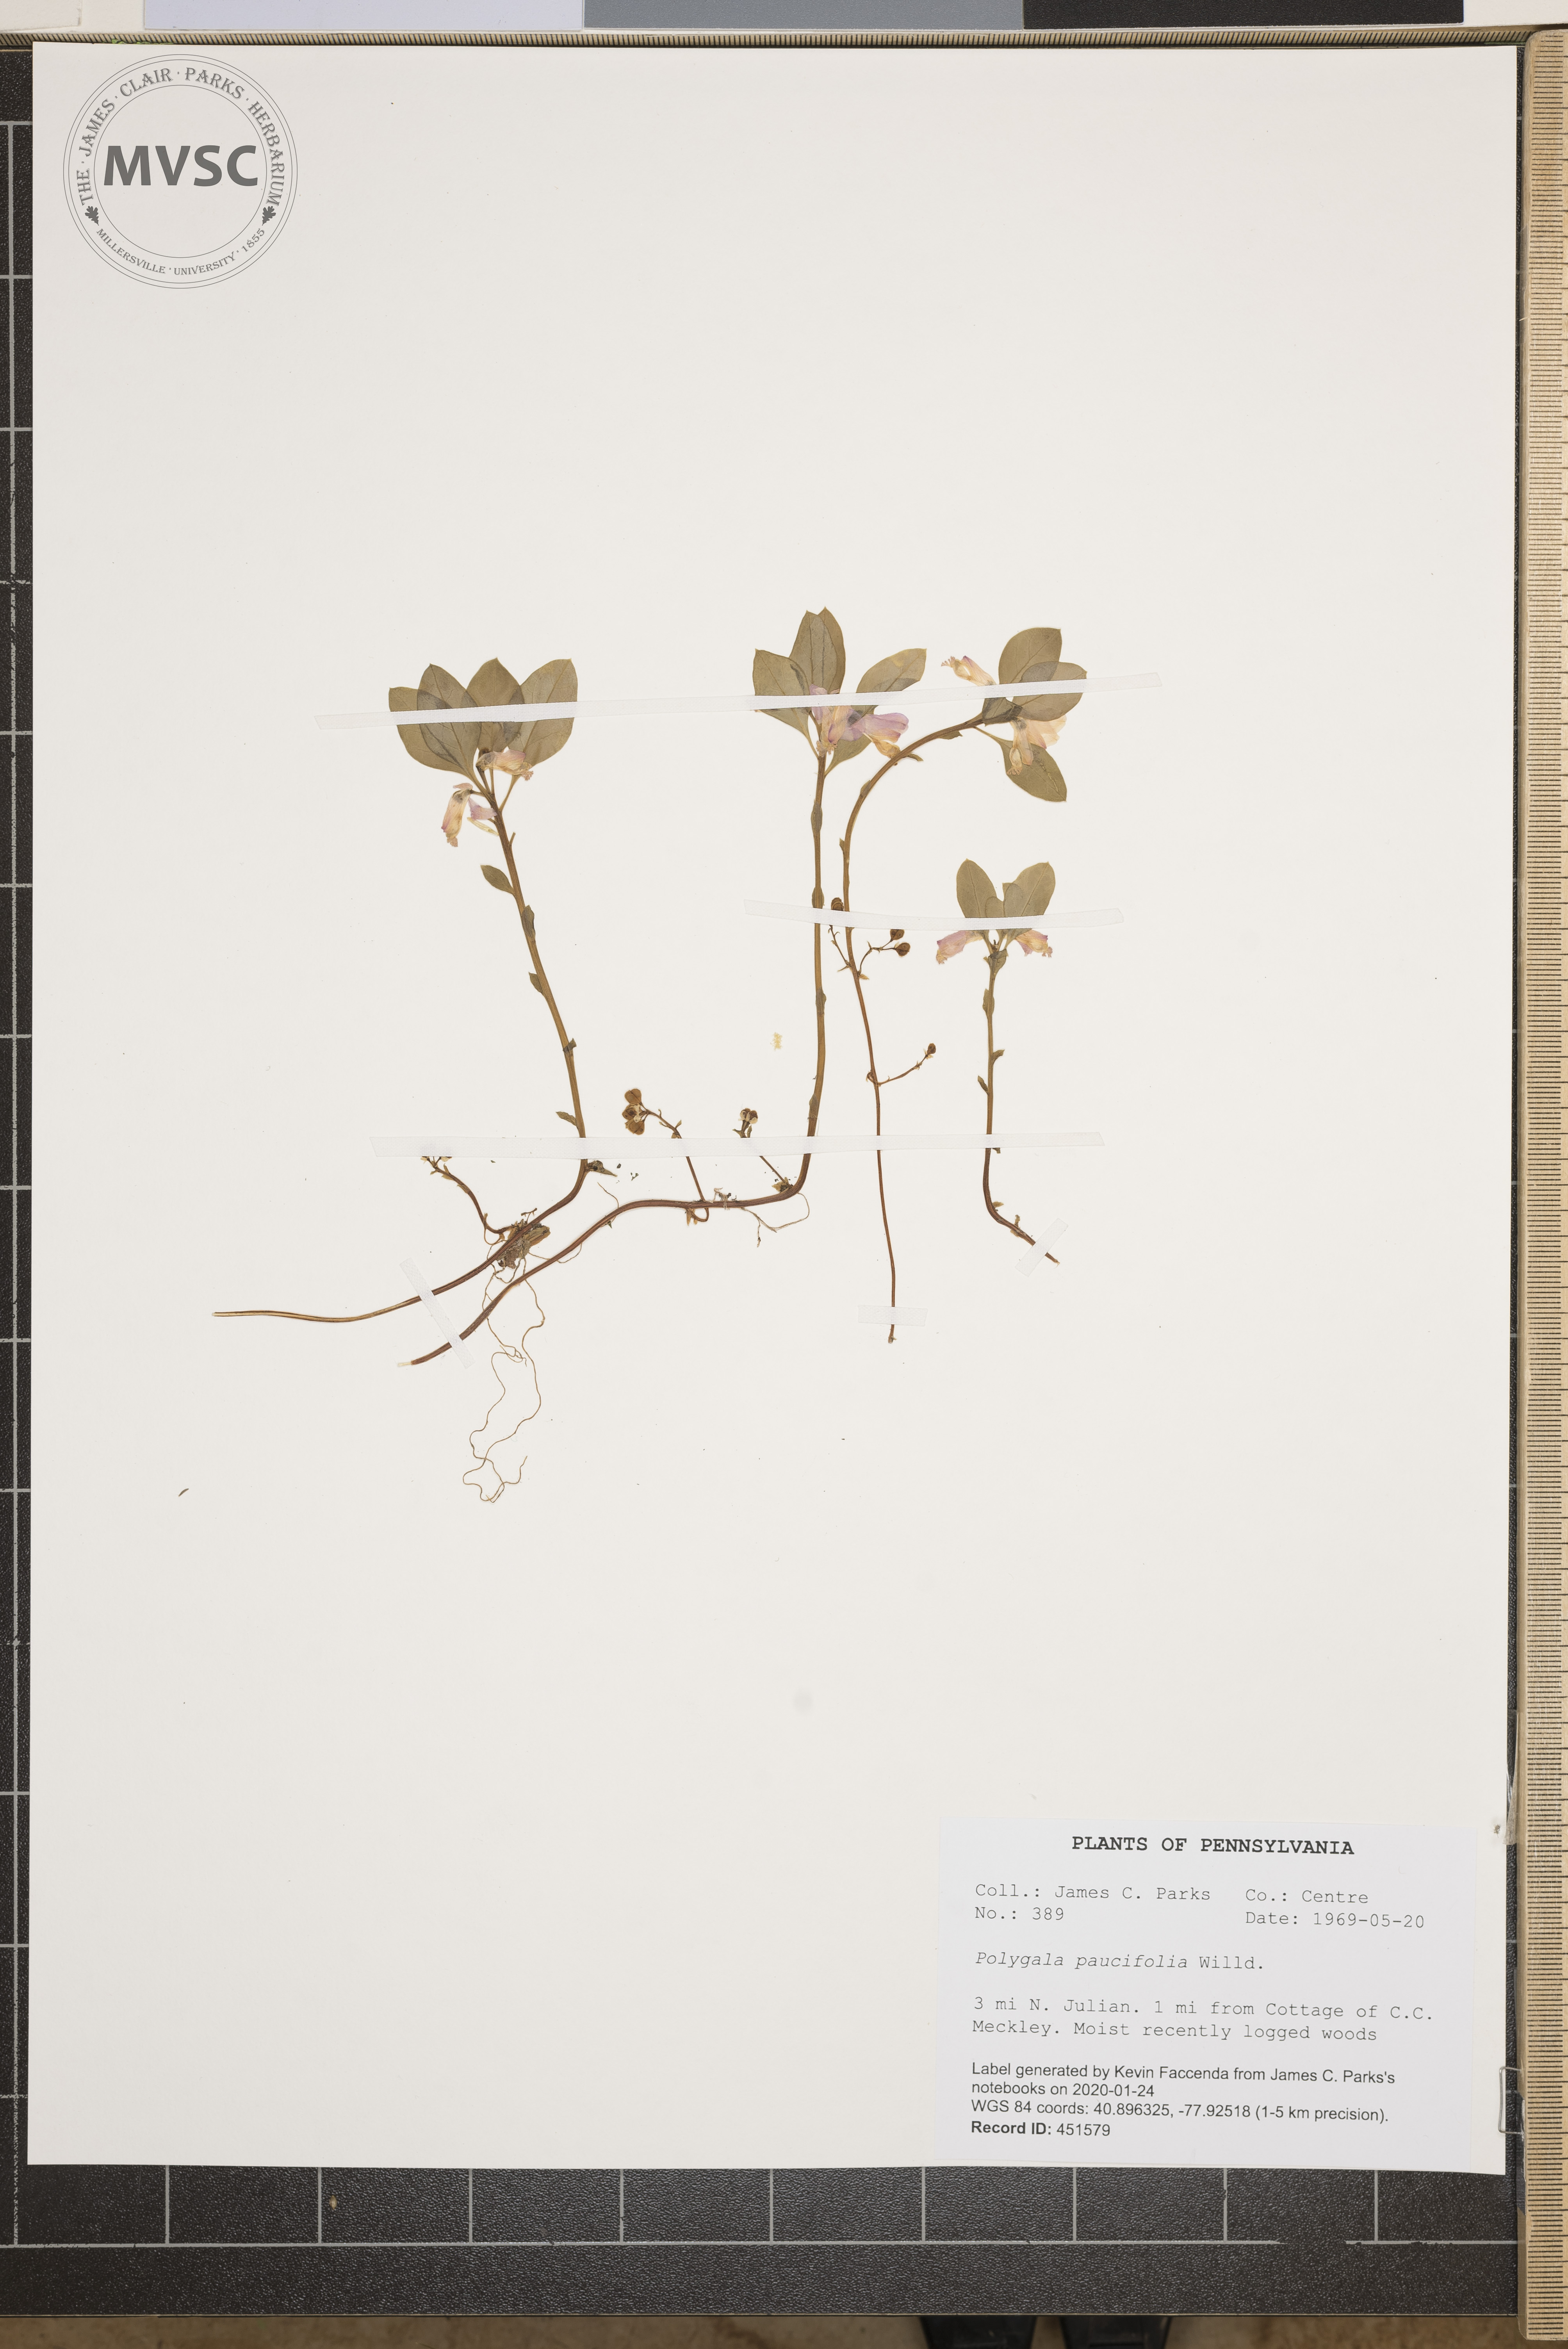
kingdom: Plantae
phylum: Tracheophyta
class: Magnoliopsida
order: Fabales
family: Polygalaceae
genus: Polygaloides
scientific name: Polygaloides paucifolia
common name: Bird-on-the-wing
